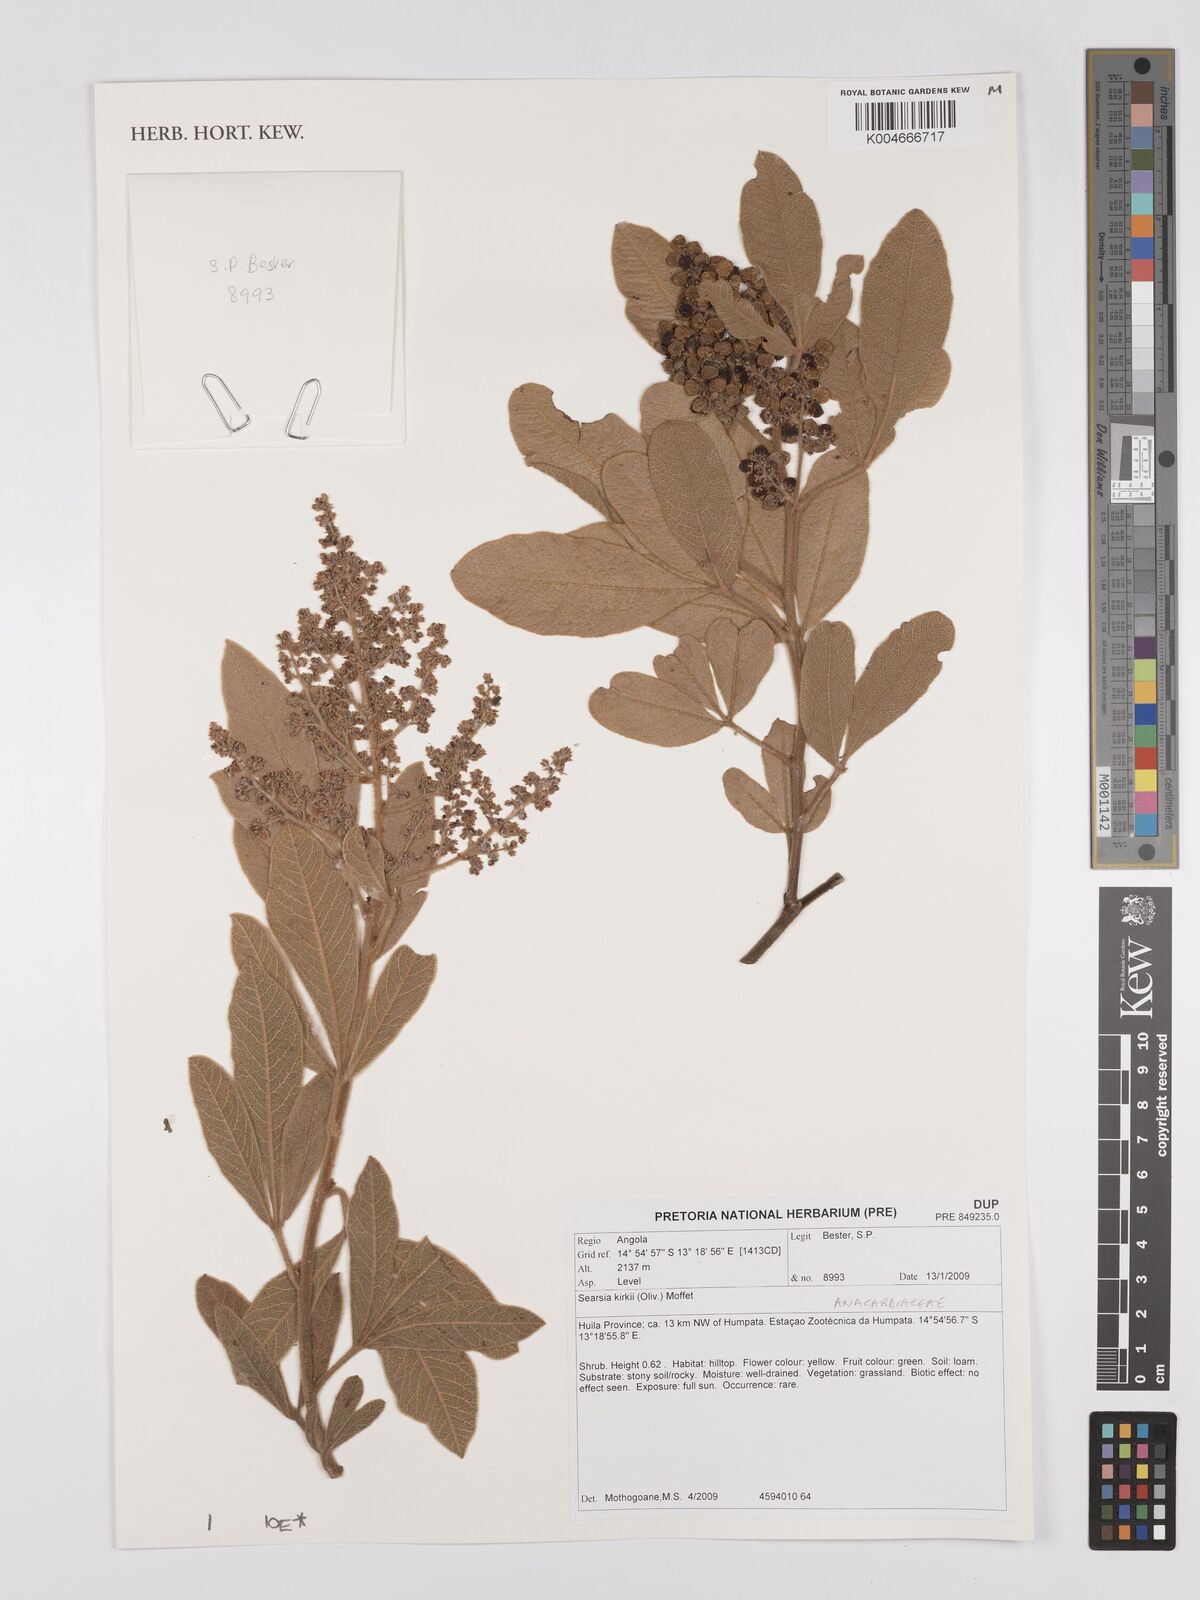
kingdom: Plantae
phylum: Tracheophyta
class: Magnoliopsida
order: Sapindales
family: Anacardiaceae
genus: Searsia
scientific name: Searsia kirkii
